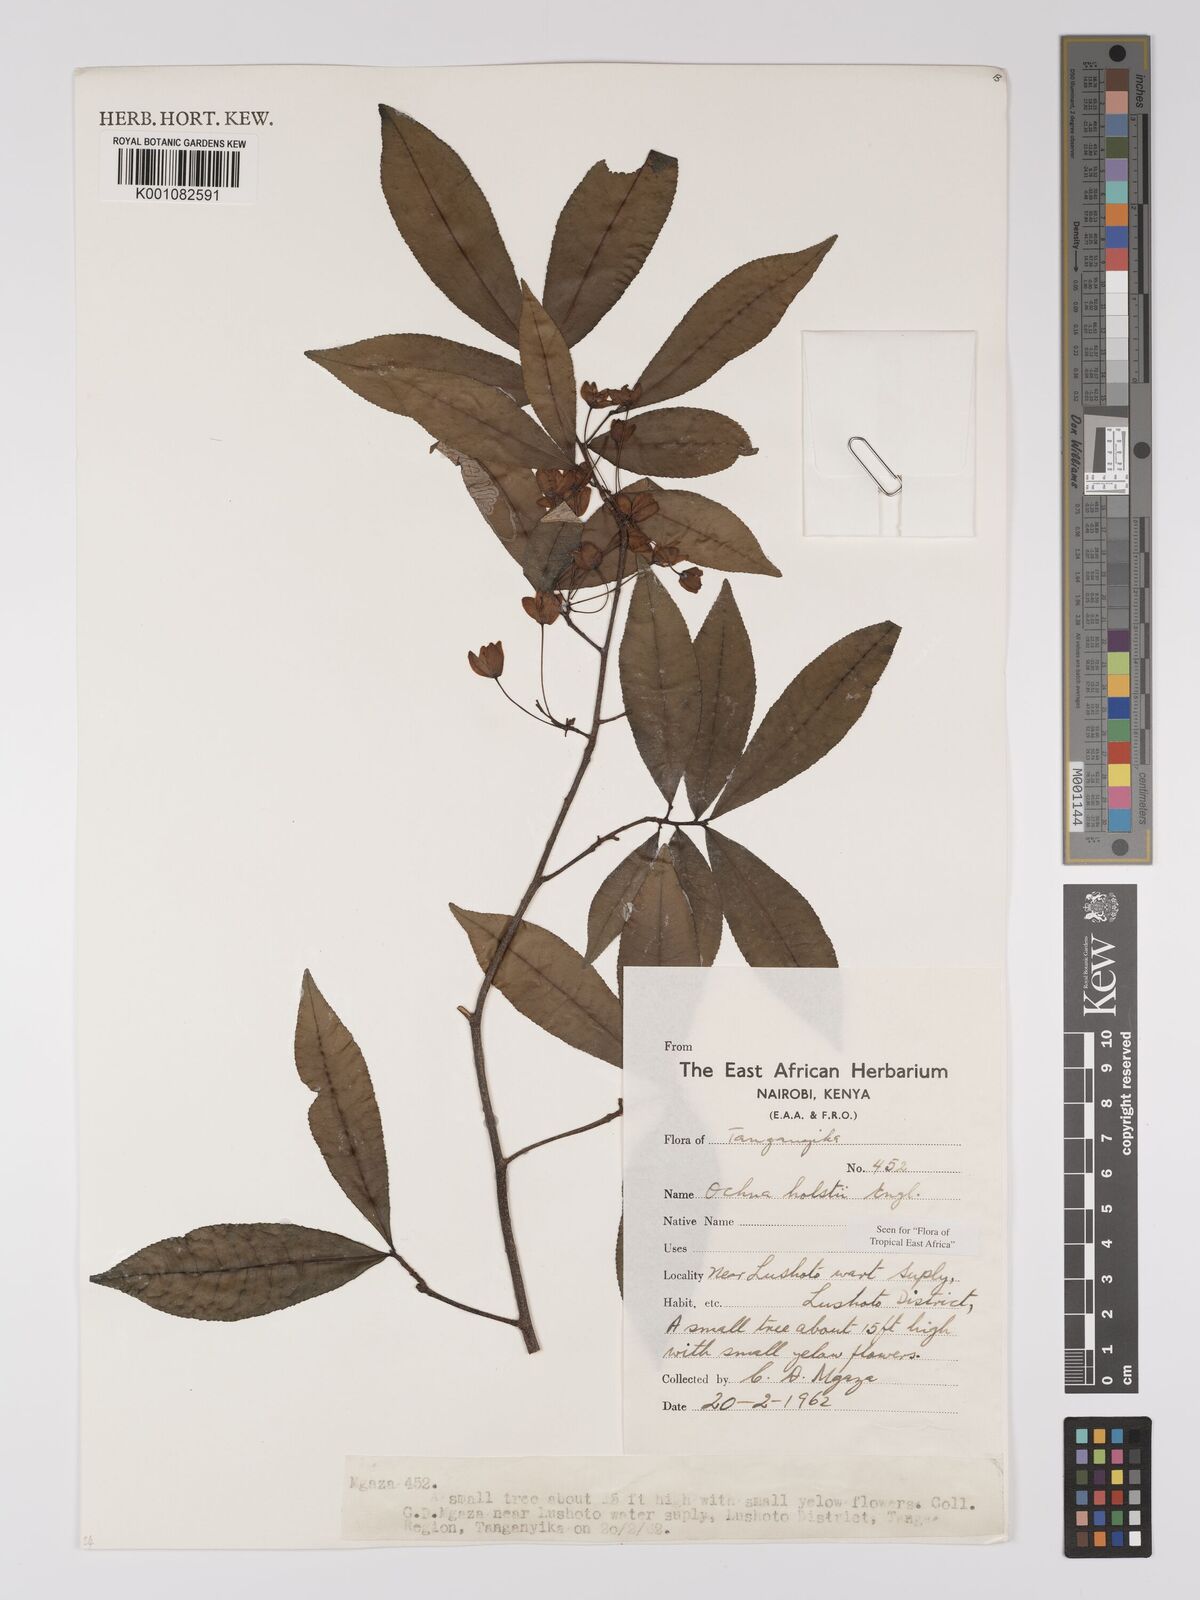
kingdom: Plantae
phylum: Tracheophyta
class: Magnoliopsida
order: Malpighiales
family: Ochnaceae
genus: Ochna
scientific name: Ochna holstii
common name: Red ironwood
